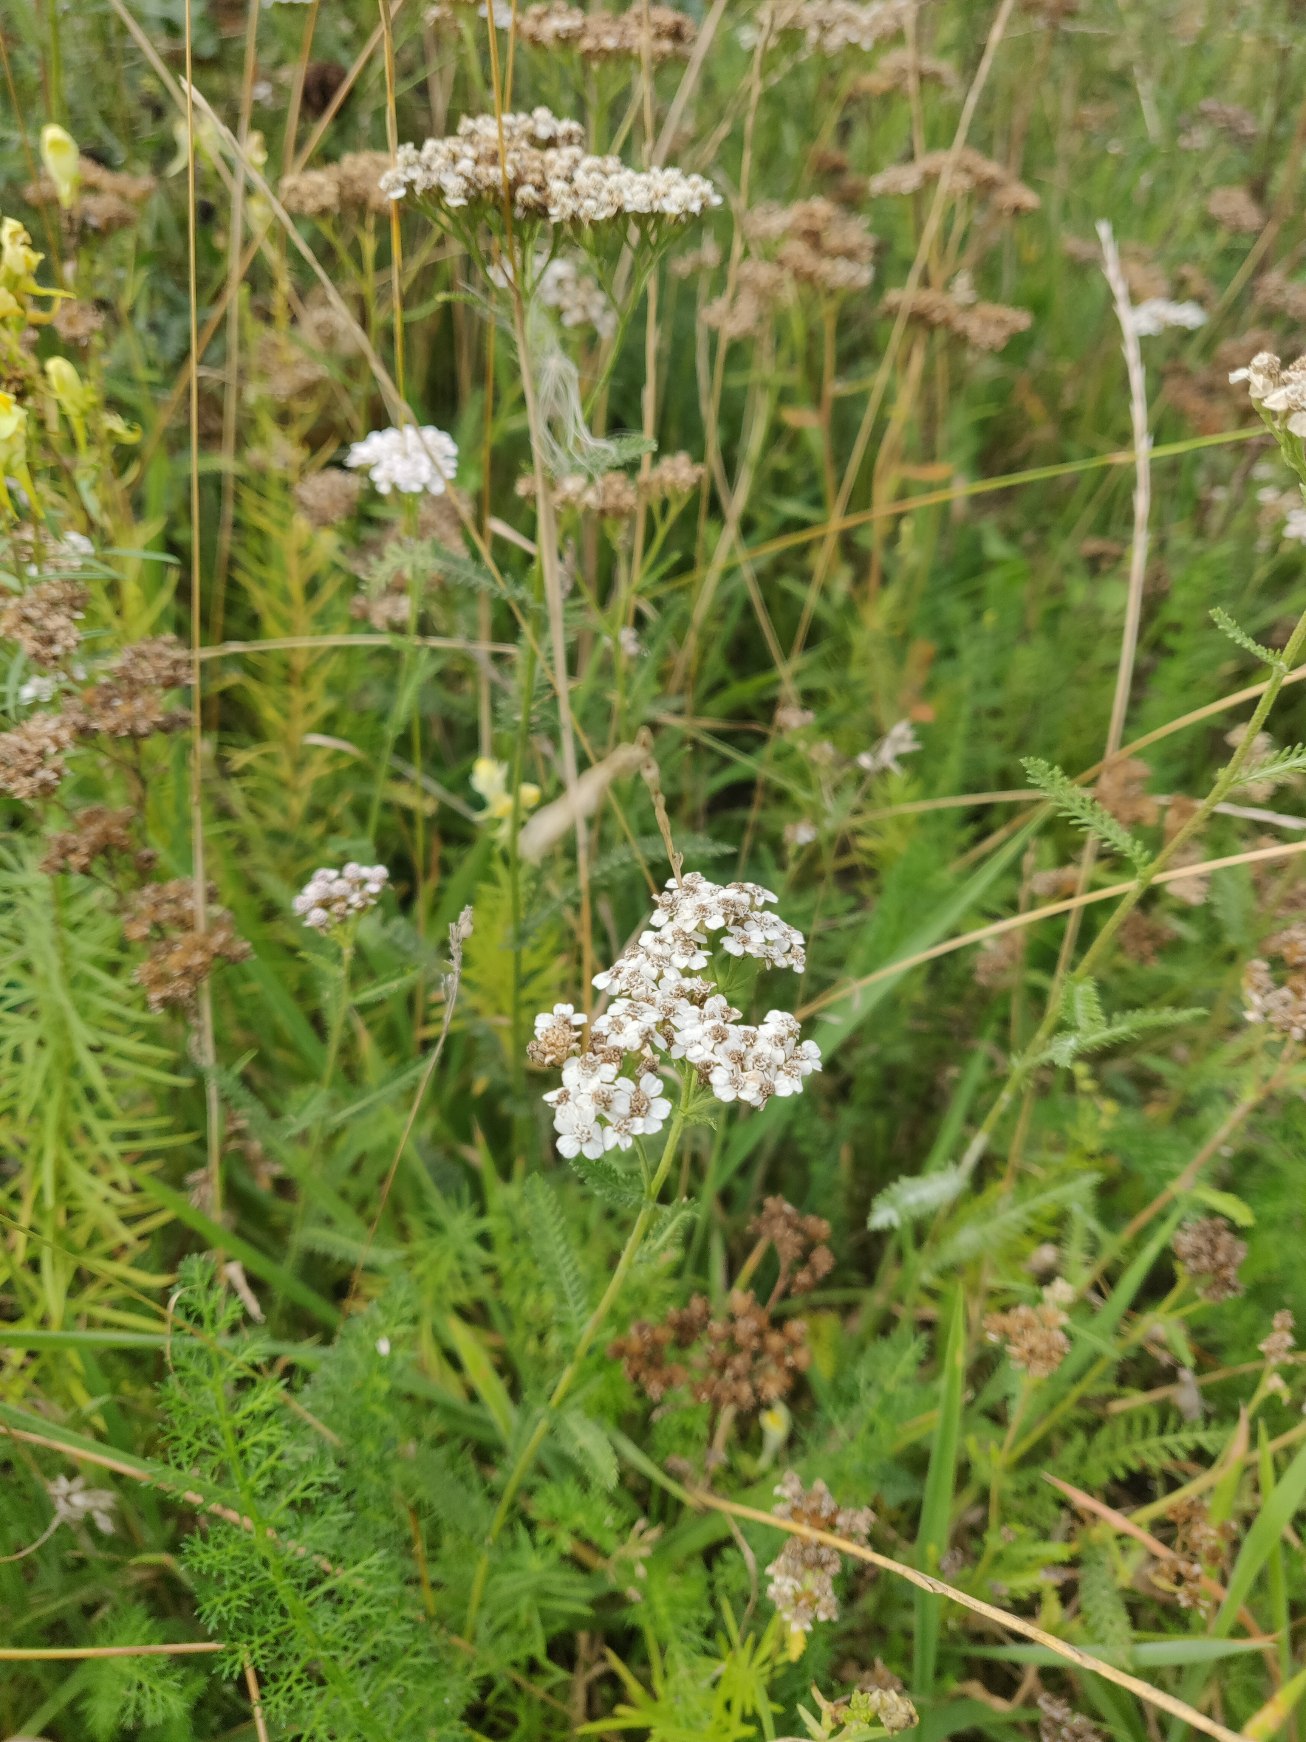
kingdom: Plantae
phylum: Tracheophyta
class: Magnoliopsida
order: Asterales
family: Asteraceae
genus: Achillea
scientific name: Achillea millefolium
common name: Almindelig røllike
